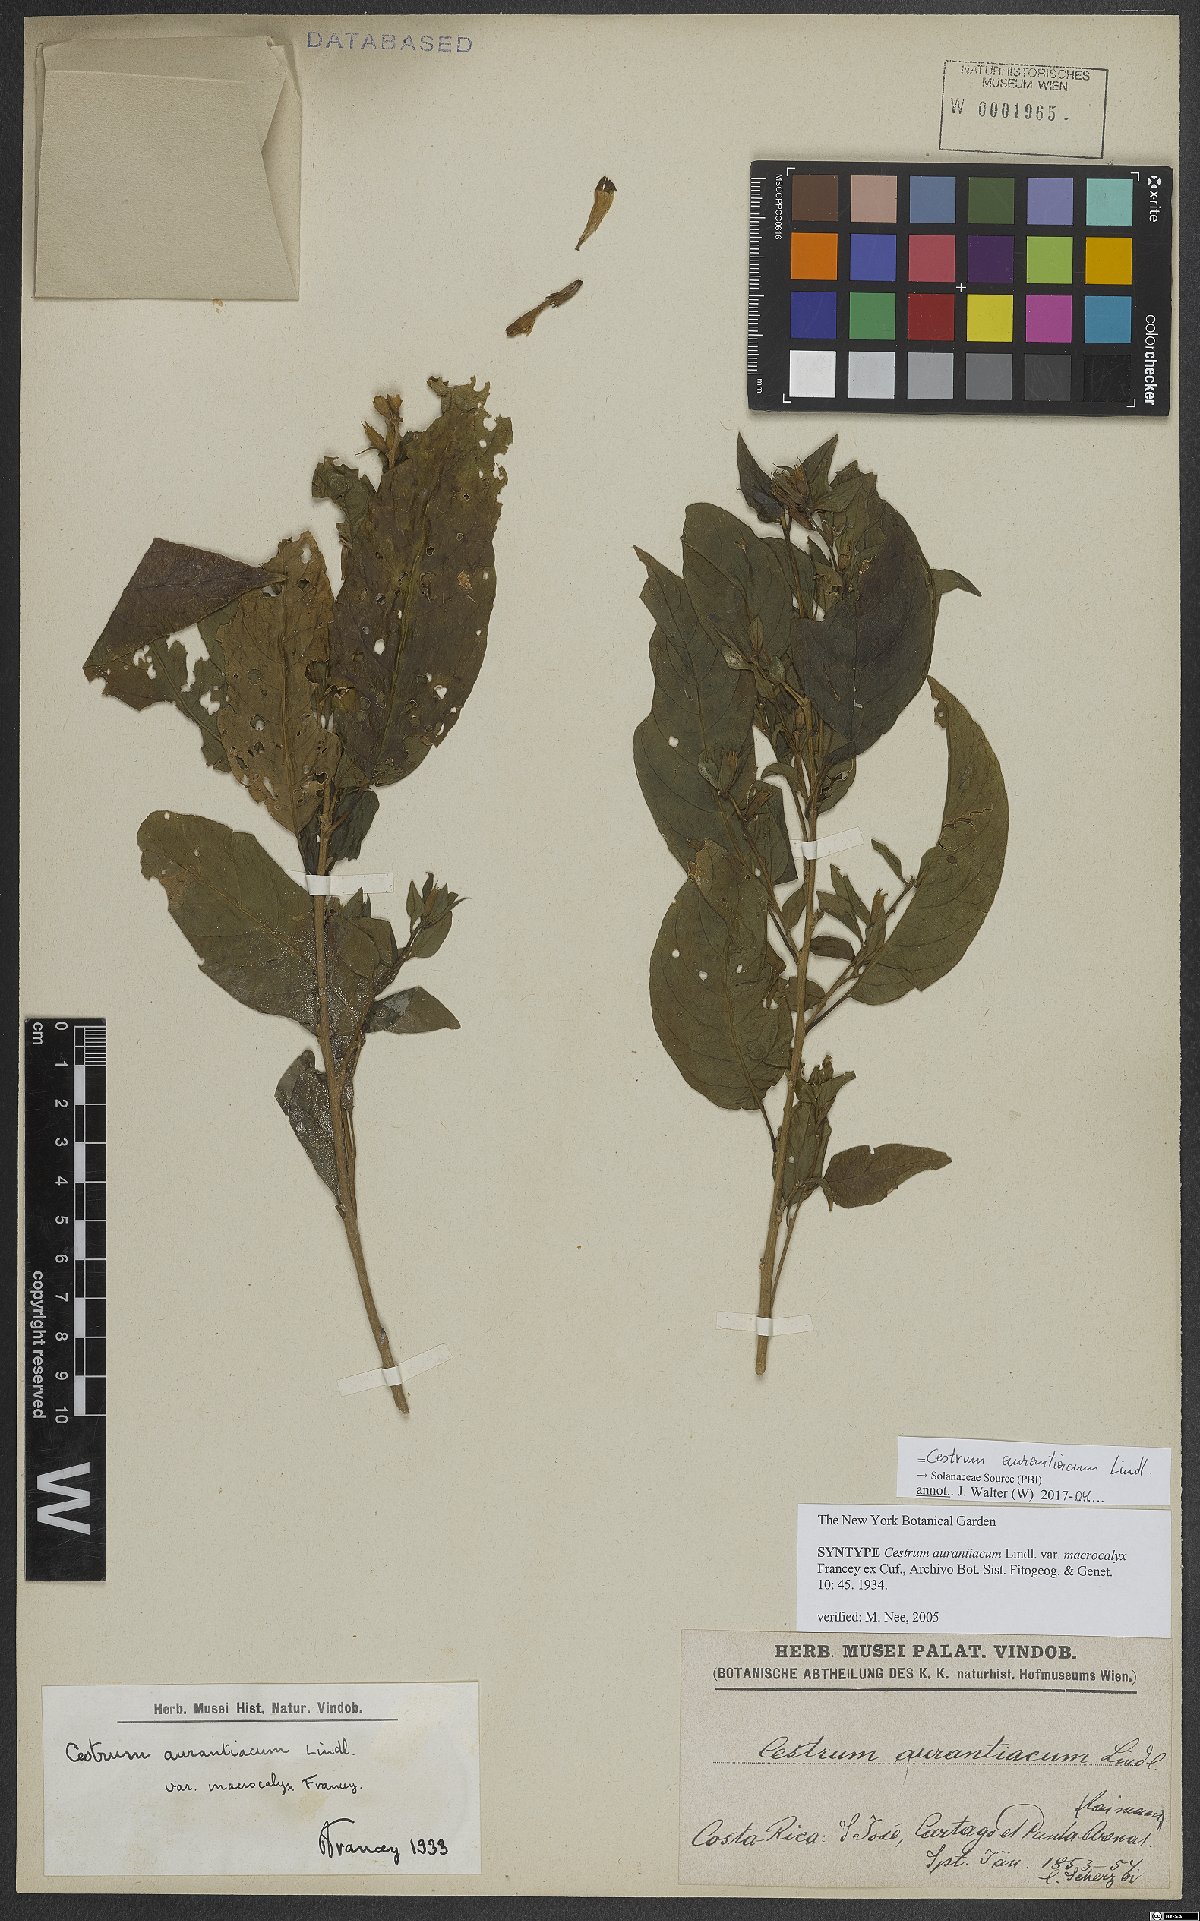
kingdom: Plantae
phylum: Tracheophyta
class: Magnoliopsida
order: Solanales
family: Solanaceae
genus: Cestrum
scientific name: Cestrum aurantiacum
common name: Orange cestrum
